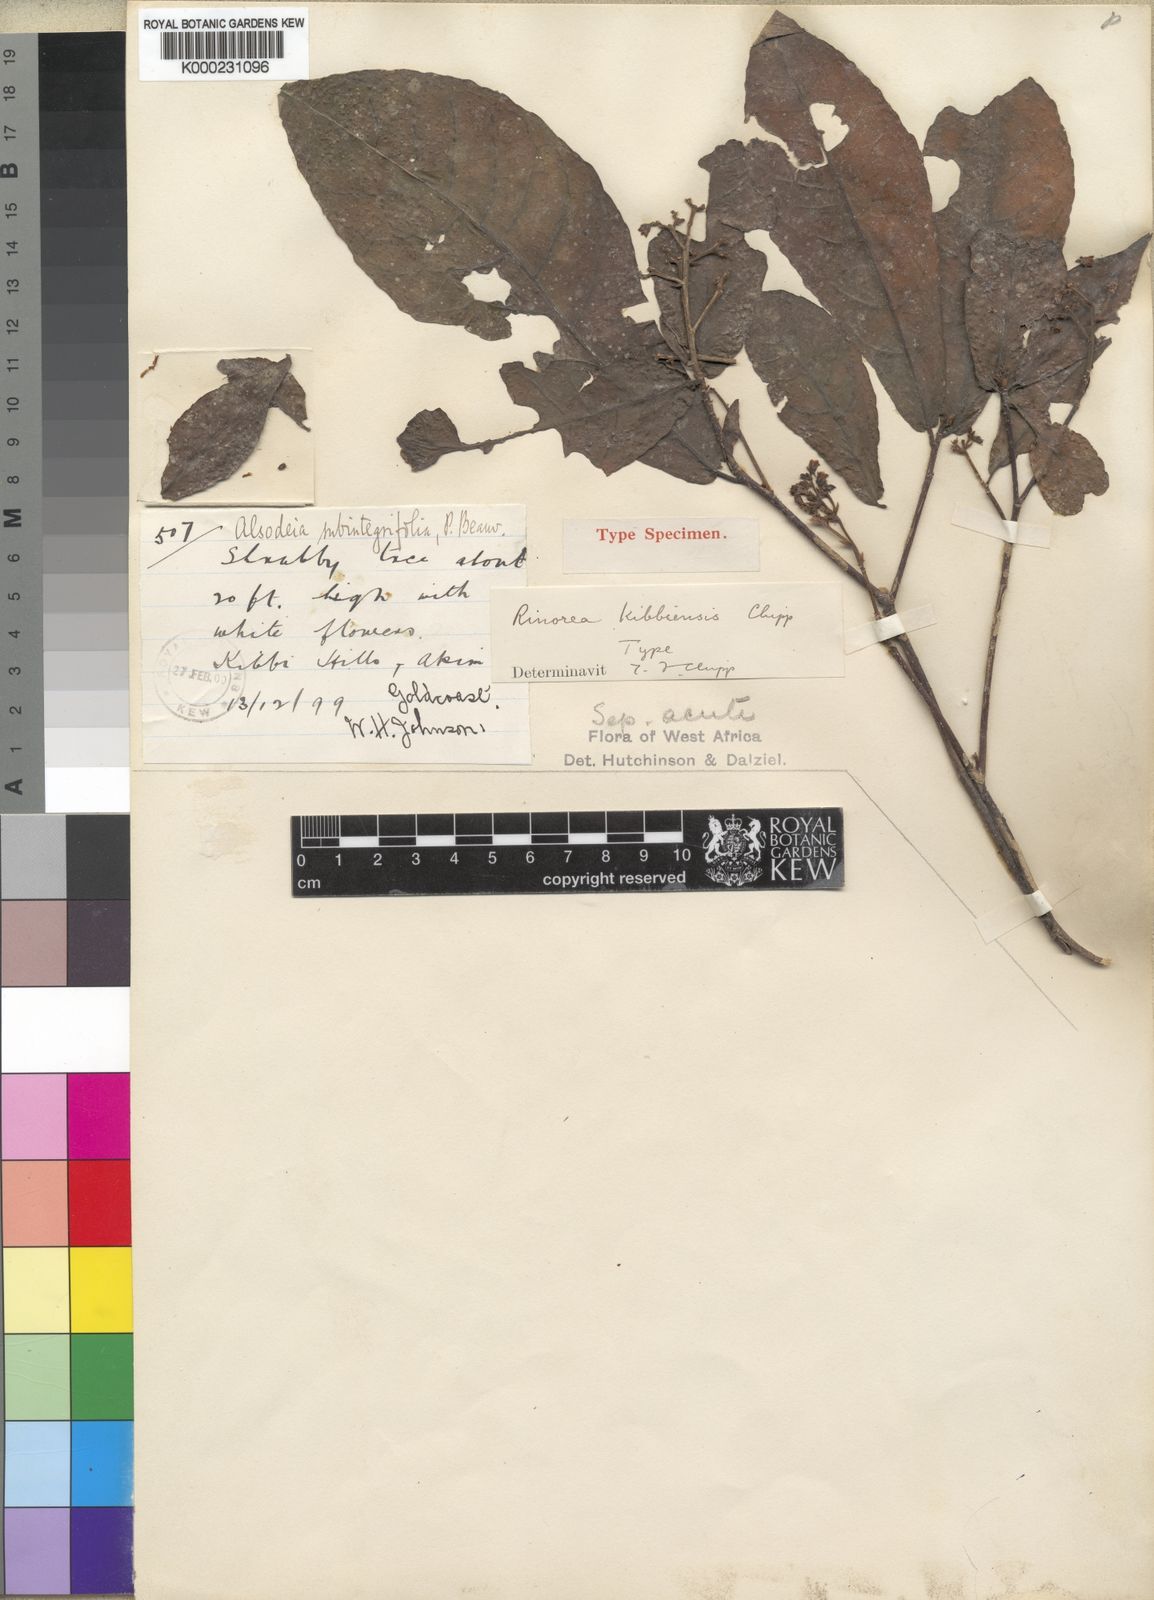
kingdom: Plantae
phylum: Tracheophyta
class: Magnoliopsida
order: Malpighiales
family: Violaceae
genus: Rinorea
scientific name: Rinorea kibbiensis
